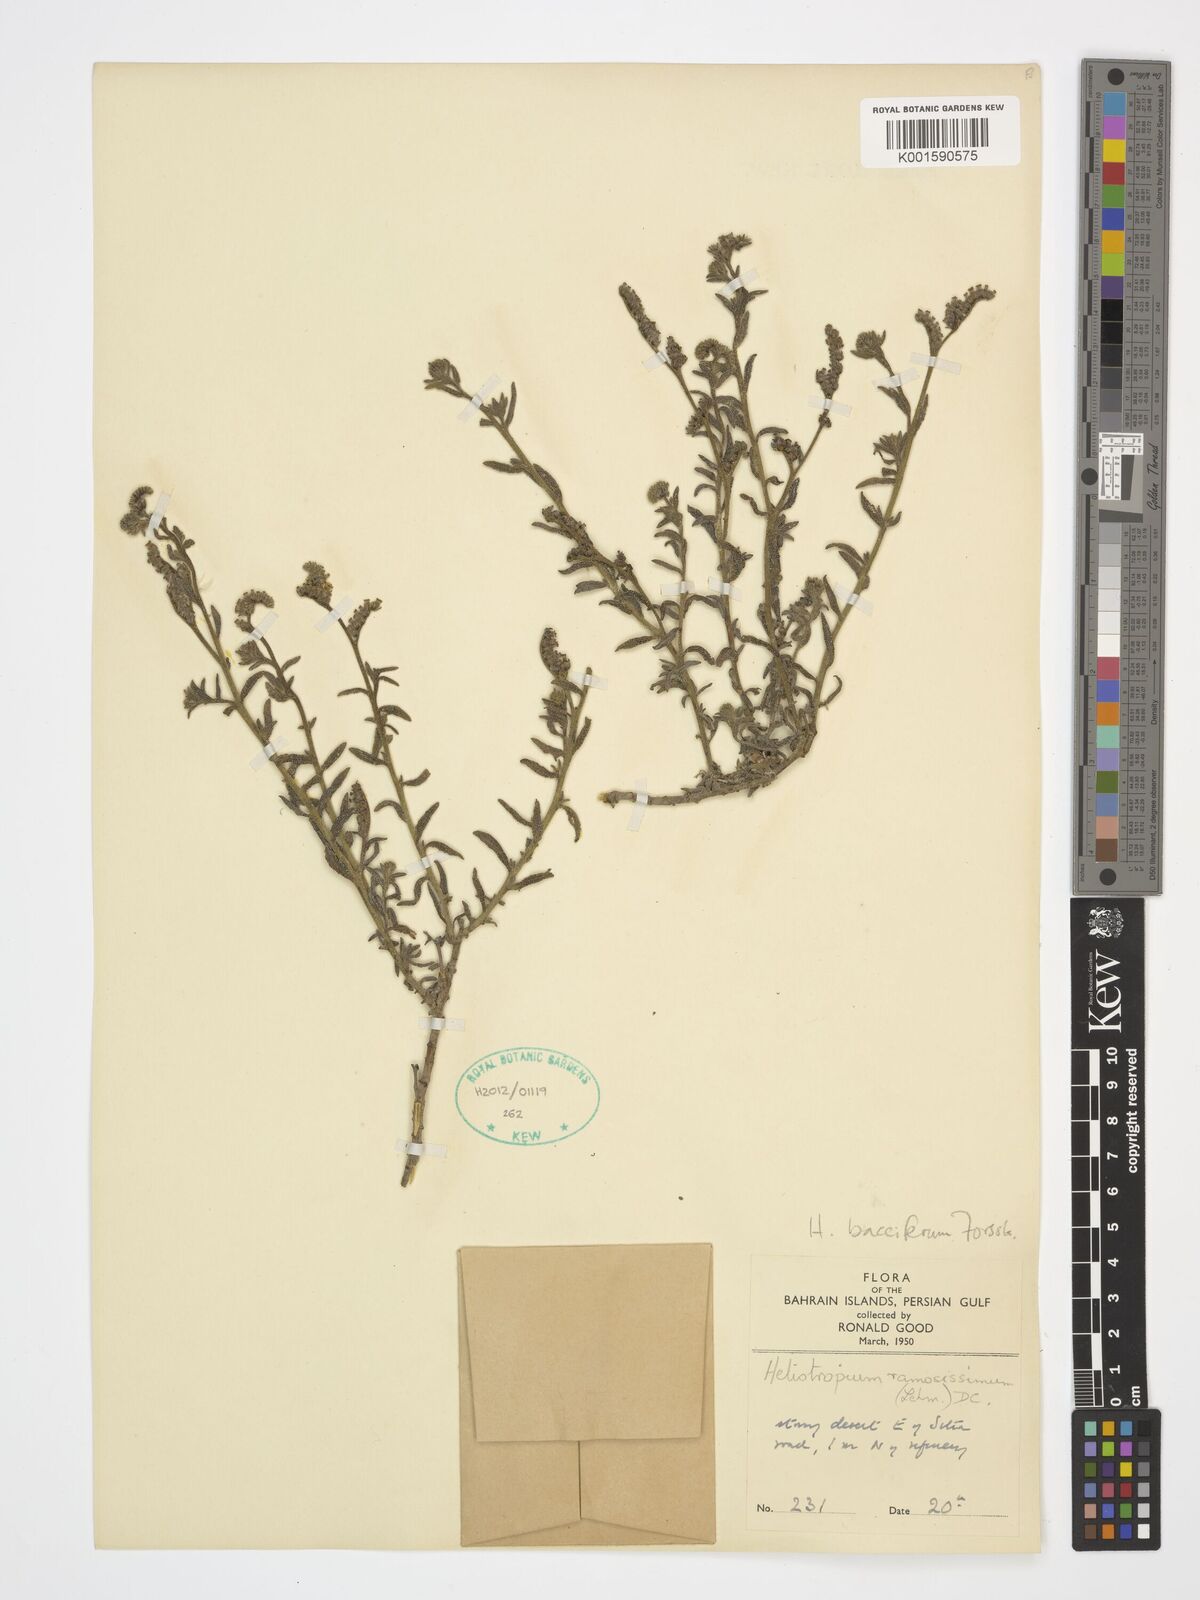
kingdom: Plantae
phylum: Tracheophyta
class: Magnoliopsida
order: Boraginales
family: Heliotropiaceae
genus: Heliotropium
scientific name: Heliotropium bacciferum
